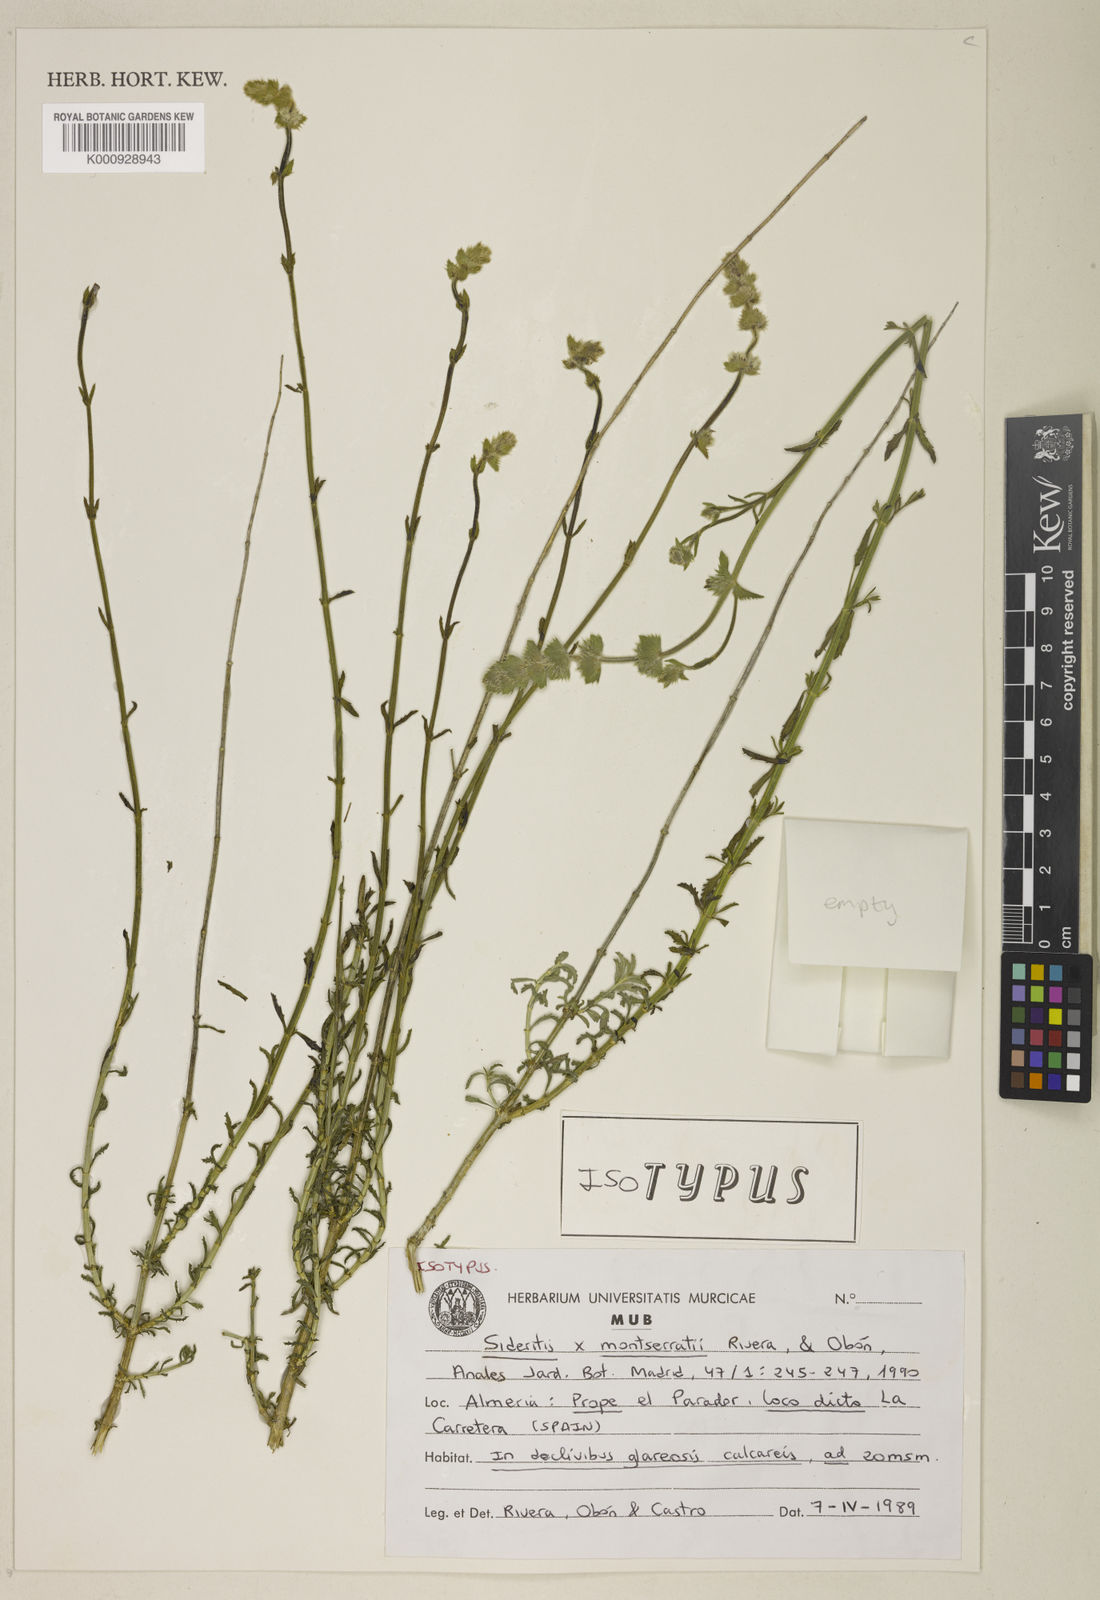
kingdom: Plantae
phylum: Tracheophyta
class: Magnoliopsida
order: Lamiales
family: Lamiaceae
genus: Sideritis
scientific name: Sideritis
